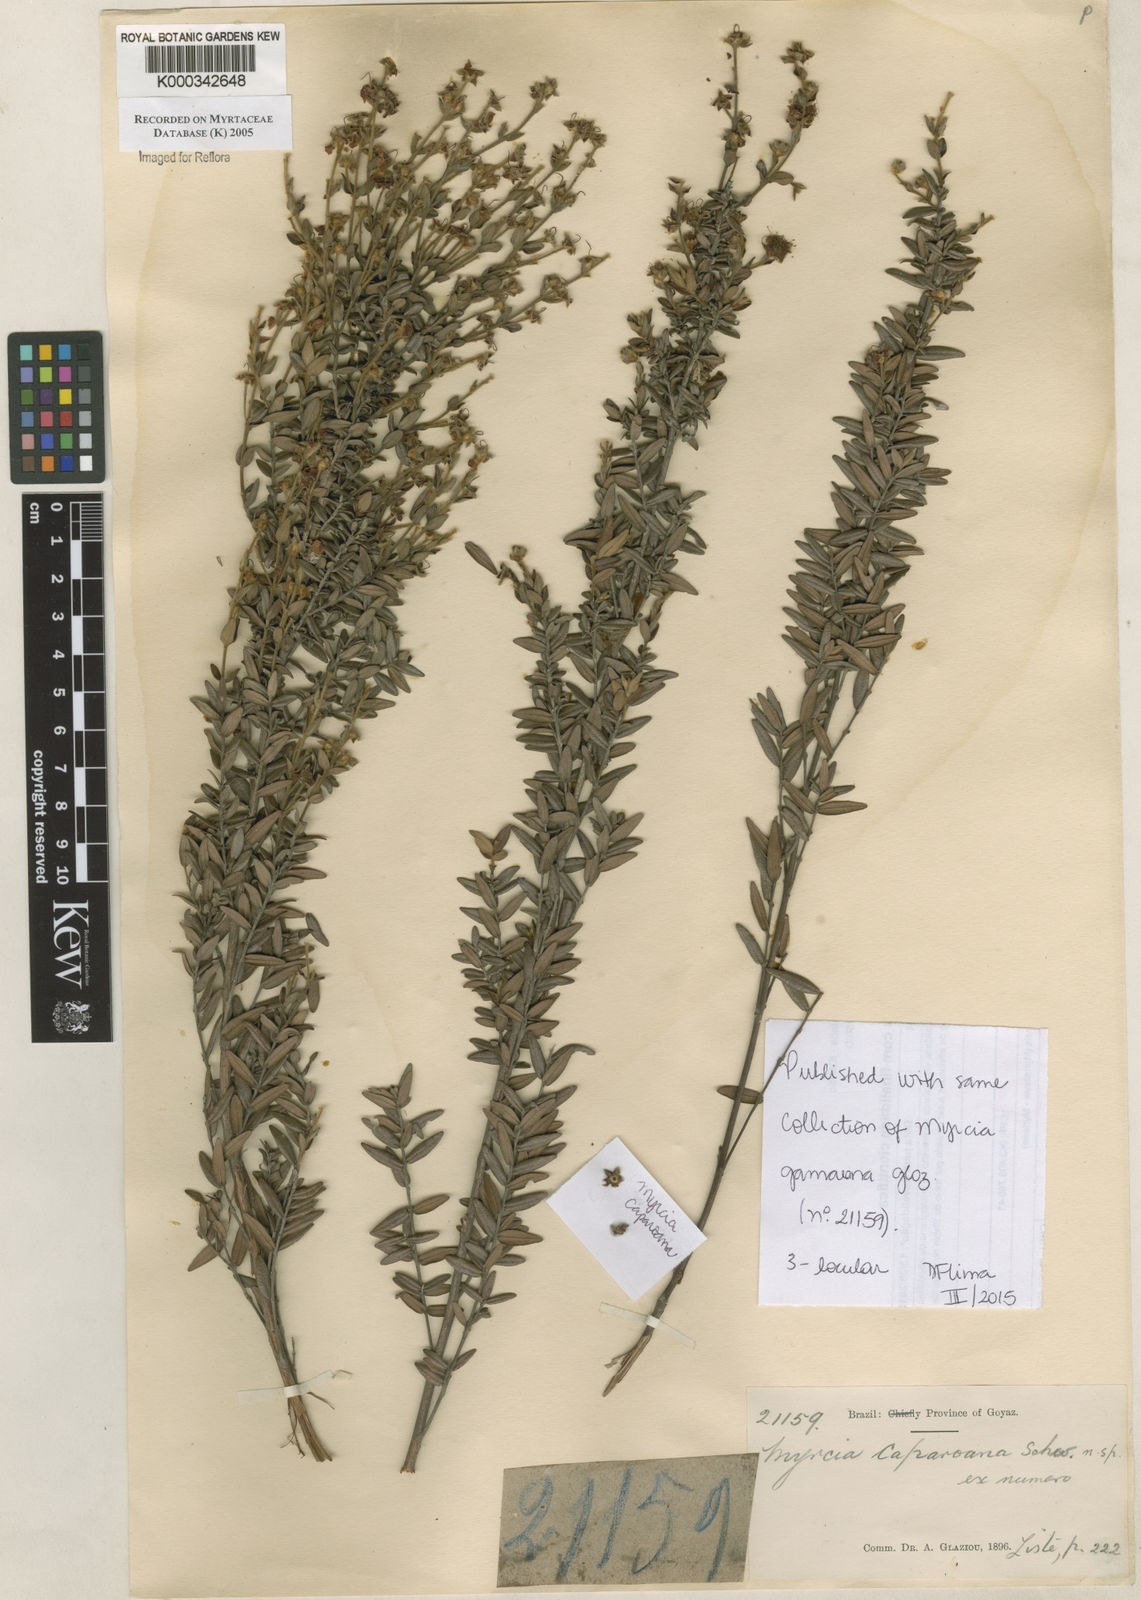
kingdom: Plantae
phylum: Tracheophyta
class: Magnoliopsida
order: Myrtales
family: Myrtaceae
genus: Myrcia
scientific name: Myrcia
